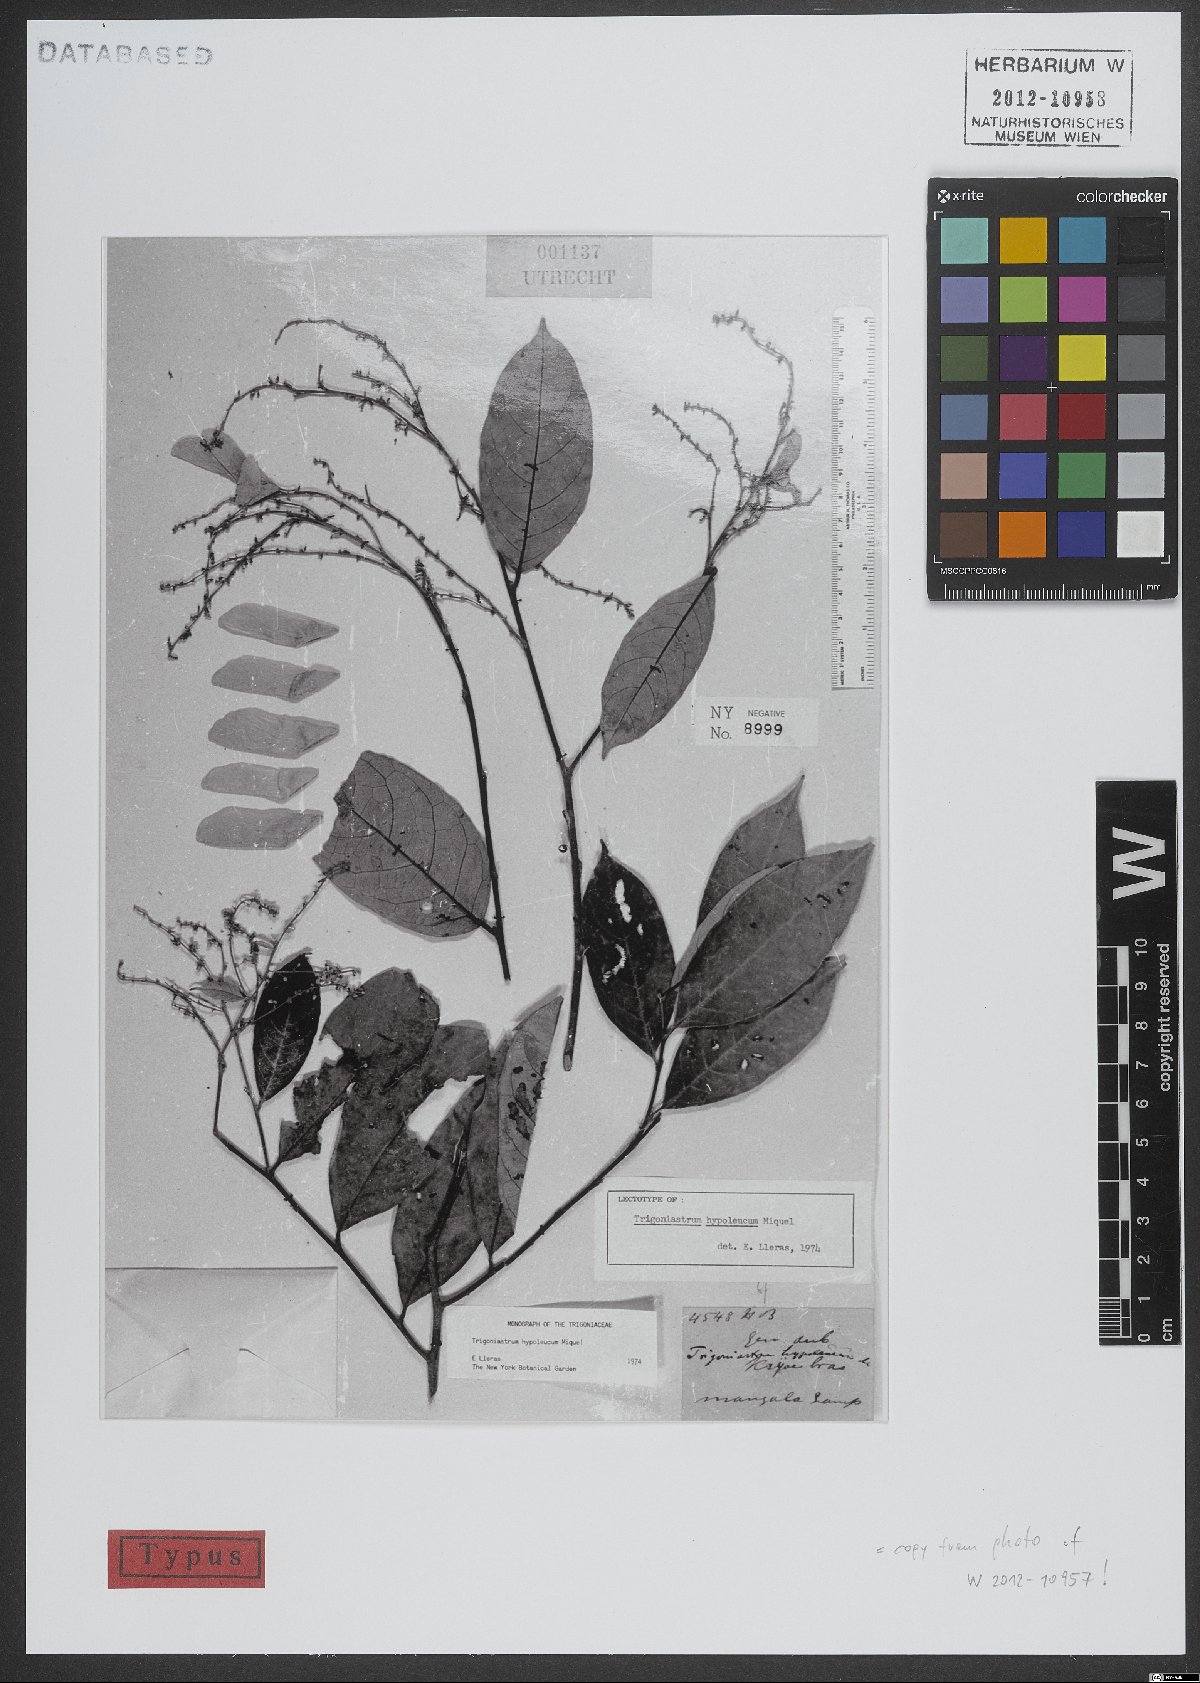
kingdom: Plantae
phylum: Tracheophyta
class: Magnoliopsida
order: Malpighiales
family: Trigoniaceae
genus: Trigoniastrum
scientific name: Trigoniastrum hypoleucum
